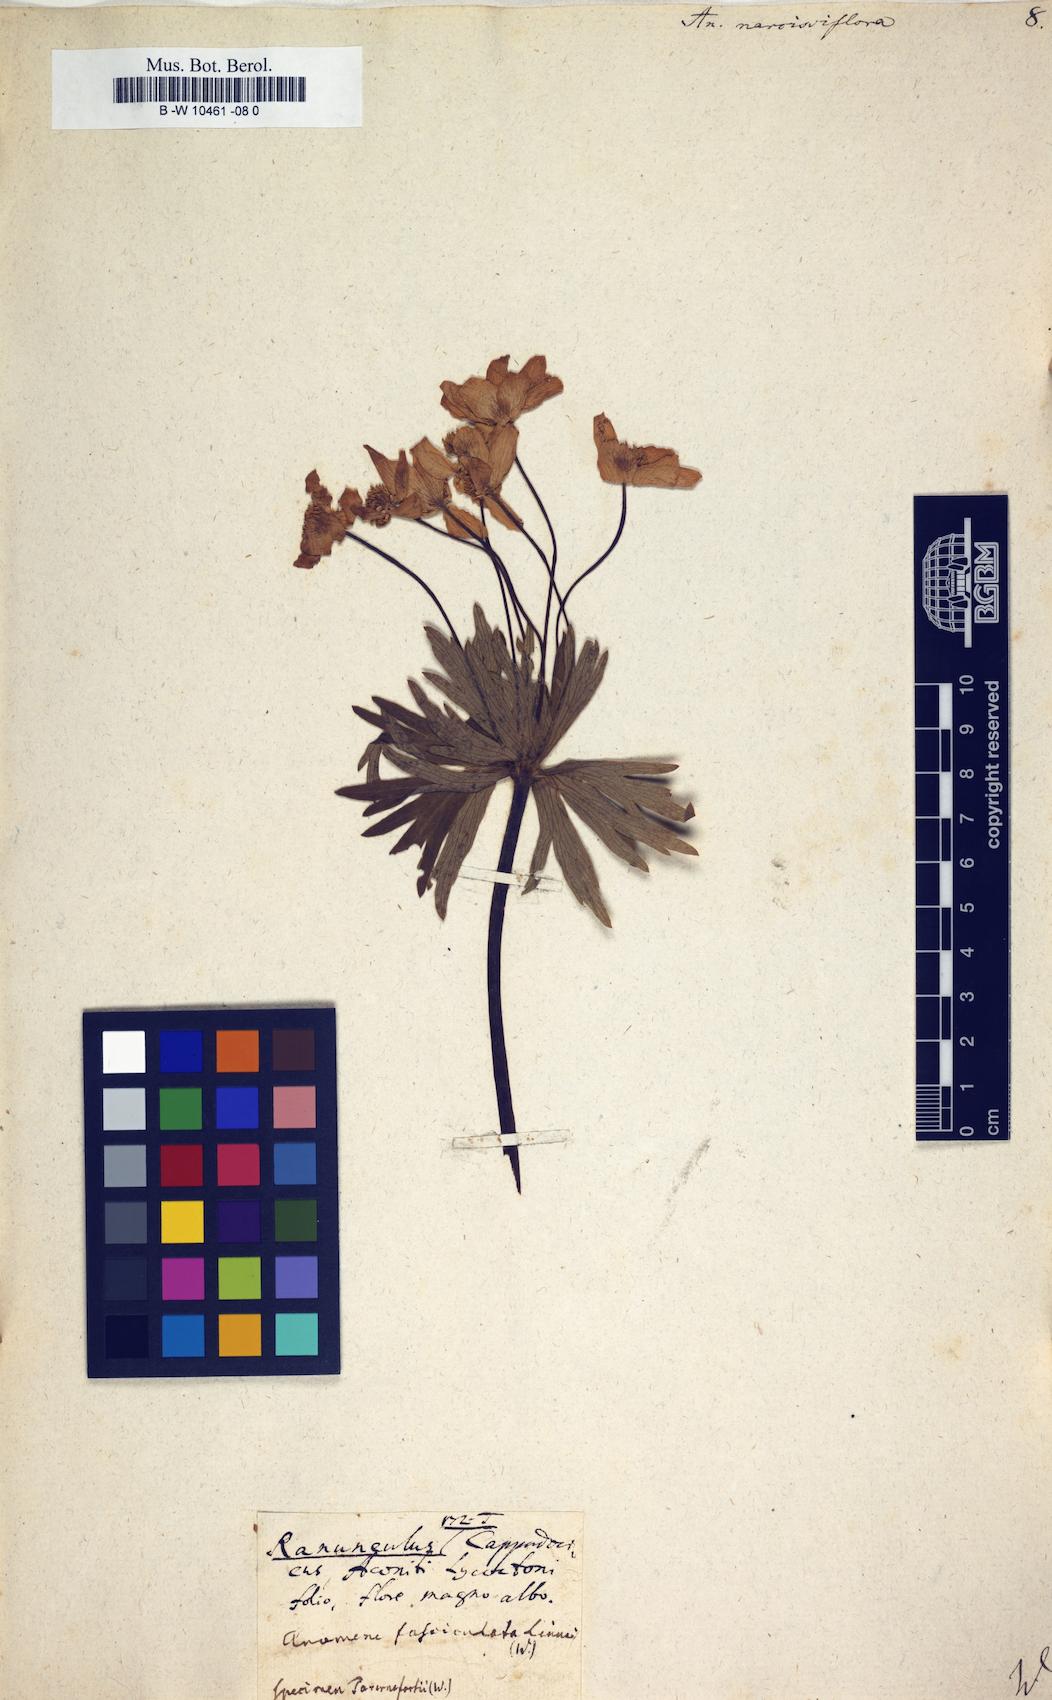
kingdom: Plantae
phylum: Tracheophyta
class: Magnoliopsida
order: Ranunculales
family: Ranunculaceae
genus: Anemonastrum
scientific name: Anemonastrum narcissiflorum
